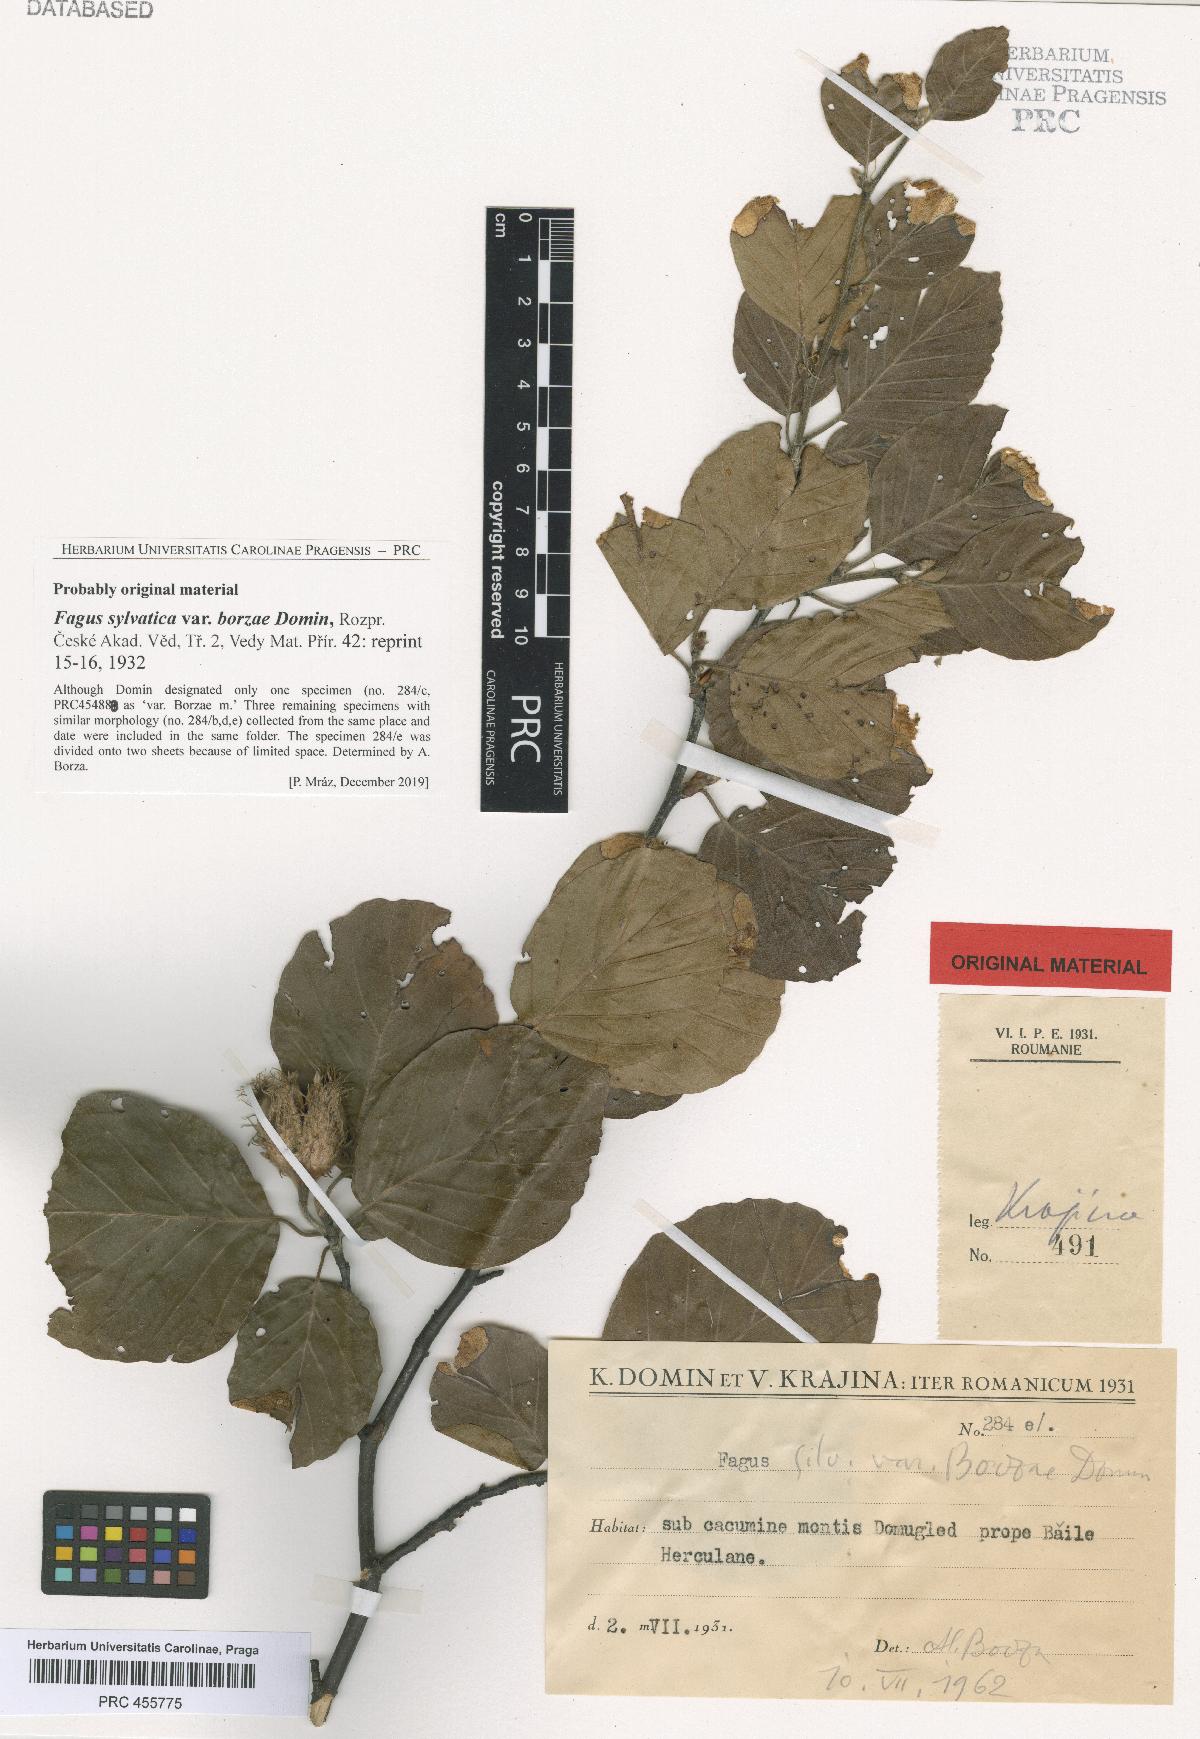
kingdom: Plantae
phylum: Tracheophyta
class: Magnoliopsida
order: Fagales
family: Fagaceae
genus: Fagus
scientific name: Fagus sylvatica
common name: Beech
